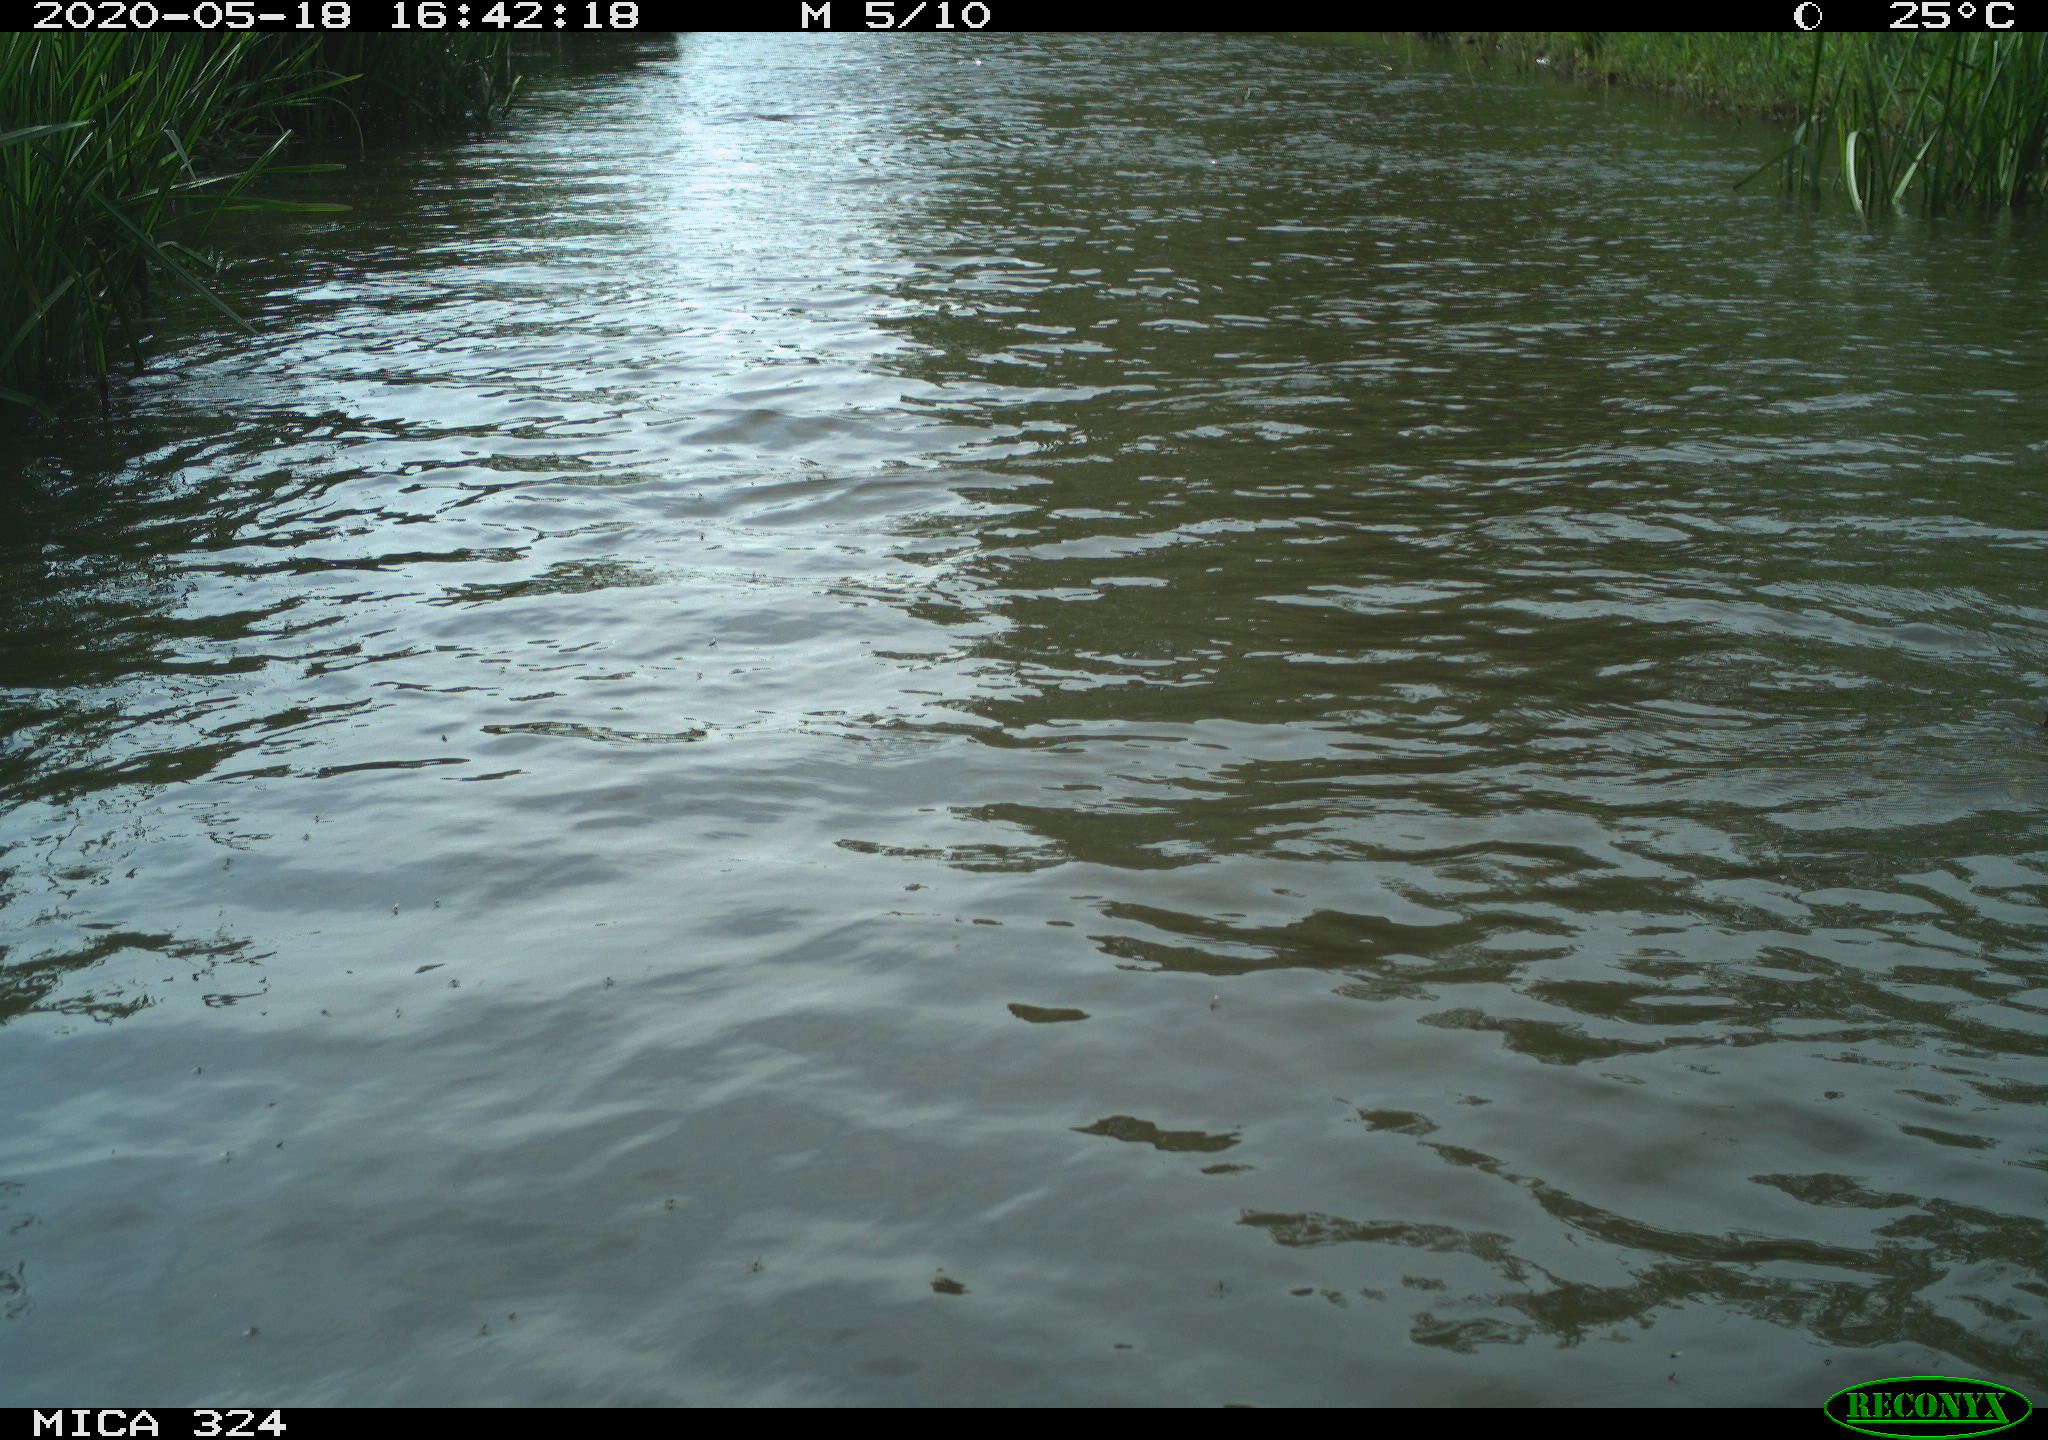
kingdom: Animalia
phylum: Chordata
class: Aves
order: Gruiformes
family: Rallidae
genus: Fulica
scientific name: Fulica atra
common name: Eurasian coot
